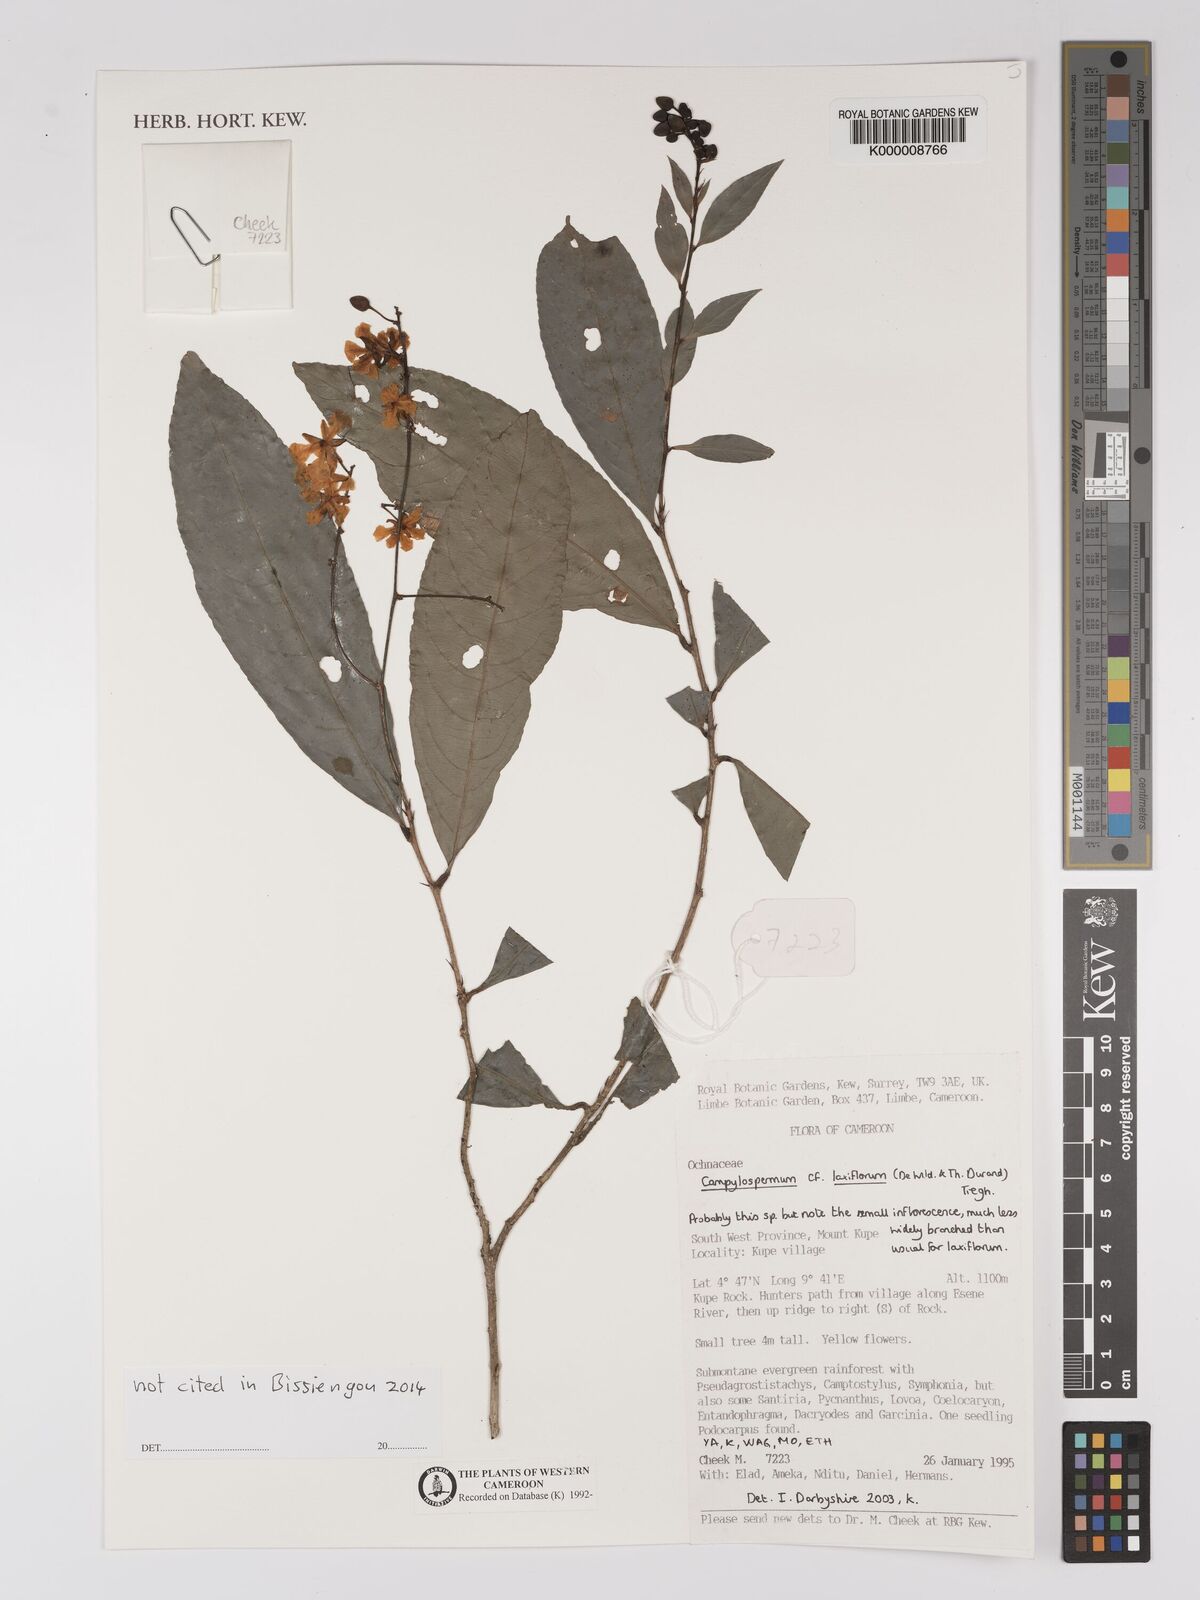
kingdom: Plantae
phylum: Tracheophyta
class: Magnoliopsida
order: Malpighiales
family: Ochnaceae
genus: Campylospermum
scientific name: Campylospermum laxiflorum
